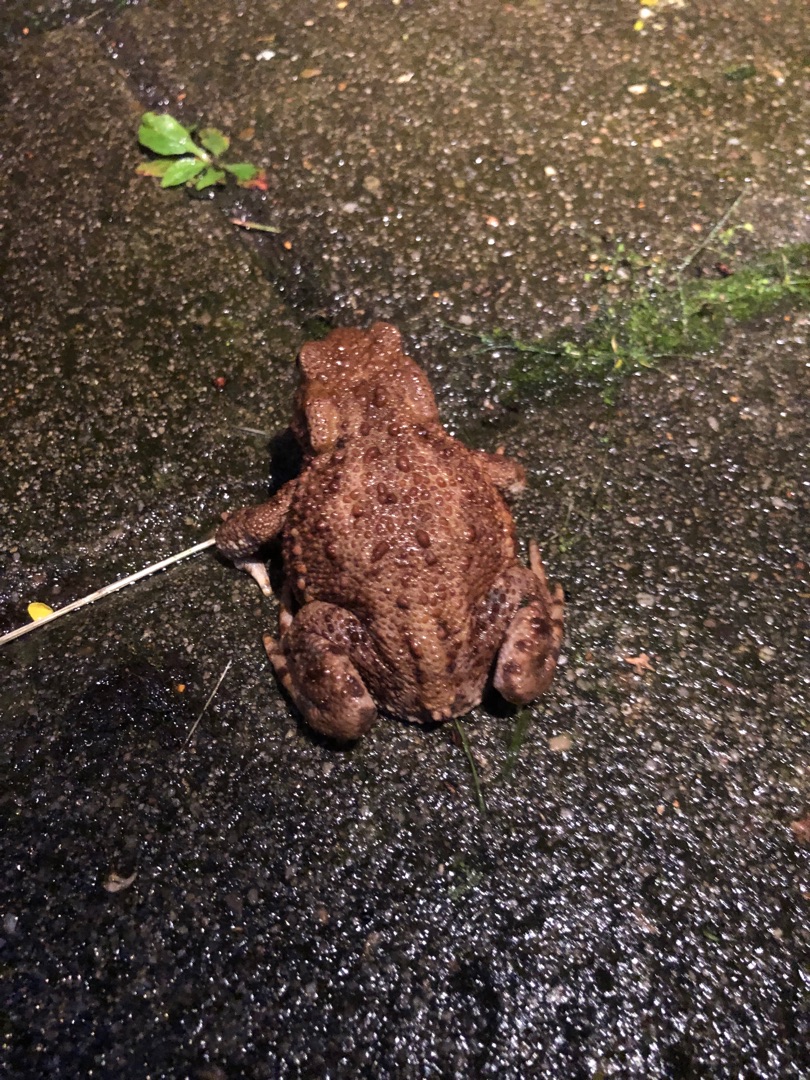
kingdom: Animalia
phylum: Chordata
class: Amphibia
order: Anura
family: Bufonidae
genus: Bufo
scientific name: Bufo bufo
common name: Skrubtudse
